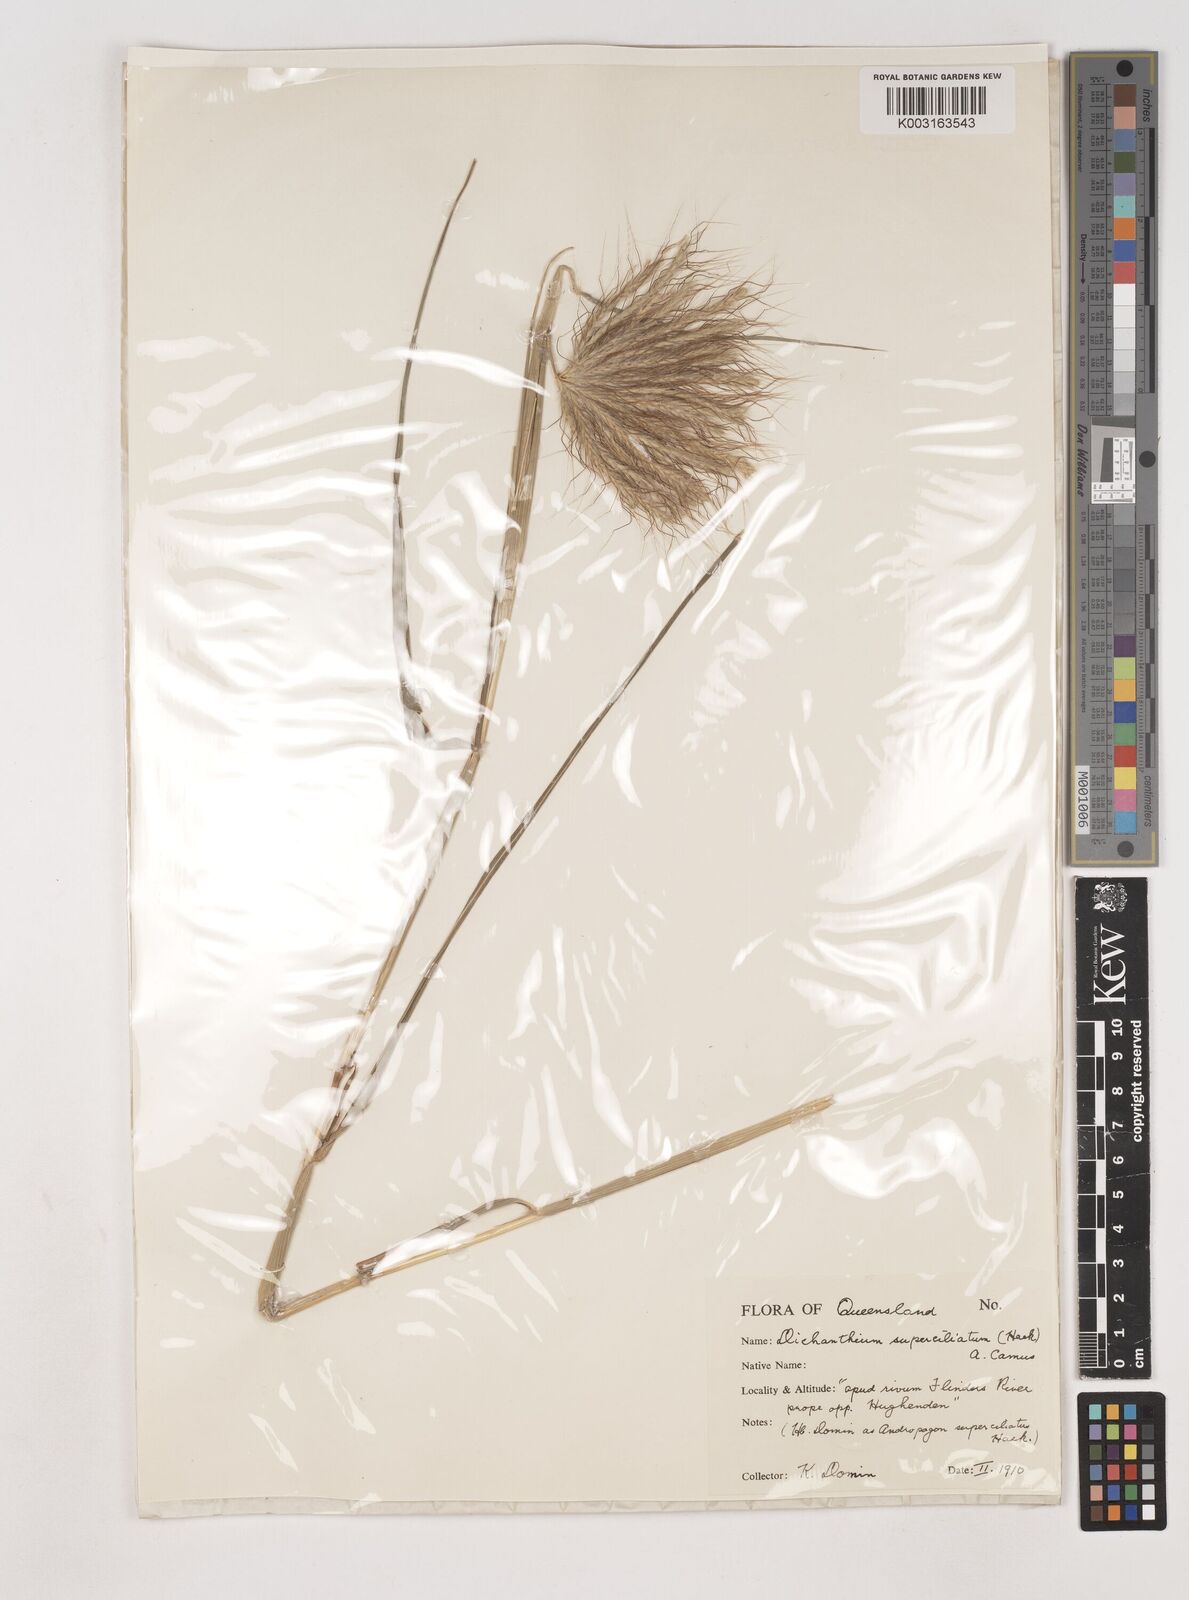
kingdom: Plantae
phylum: Tracheophyta
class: Liliopsida
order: Poales
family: Poaceae
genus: Dichanthium
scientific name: Dichanthium sericeum
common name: Silky bluestem
